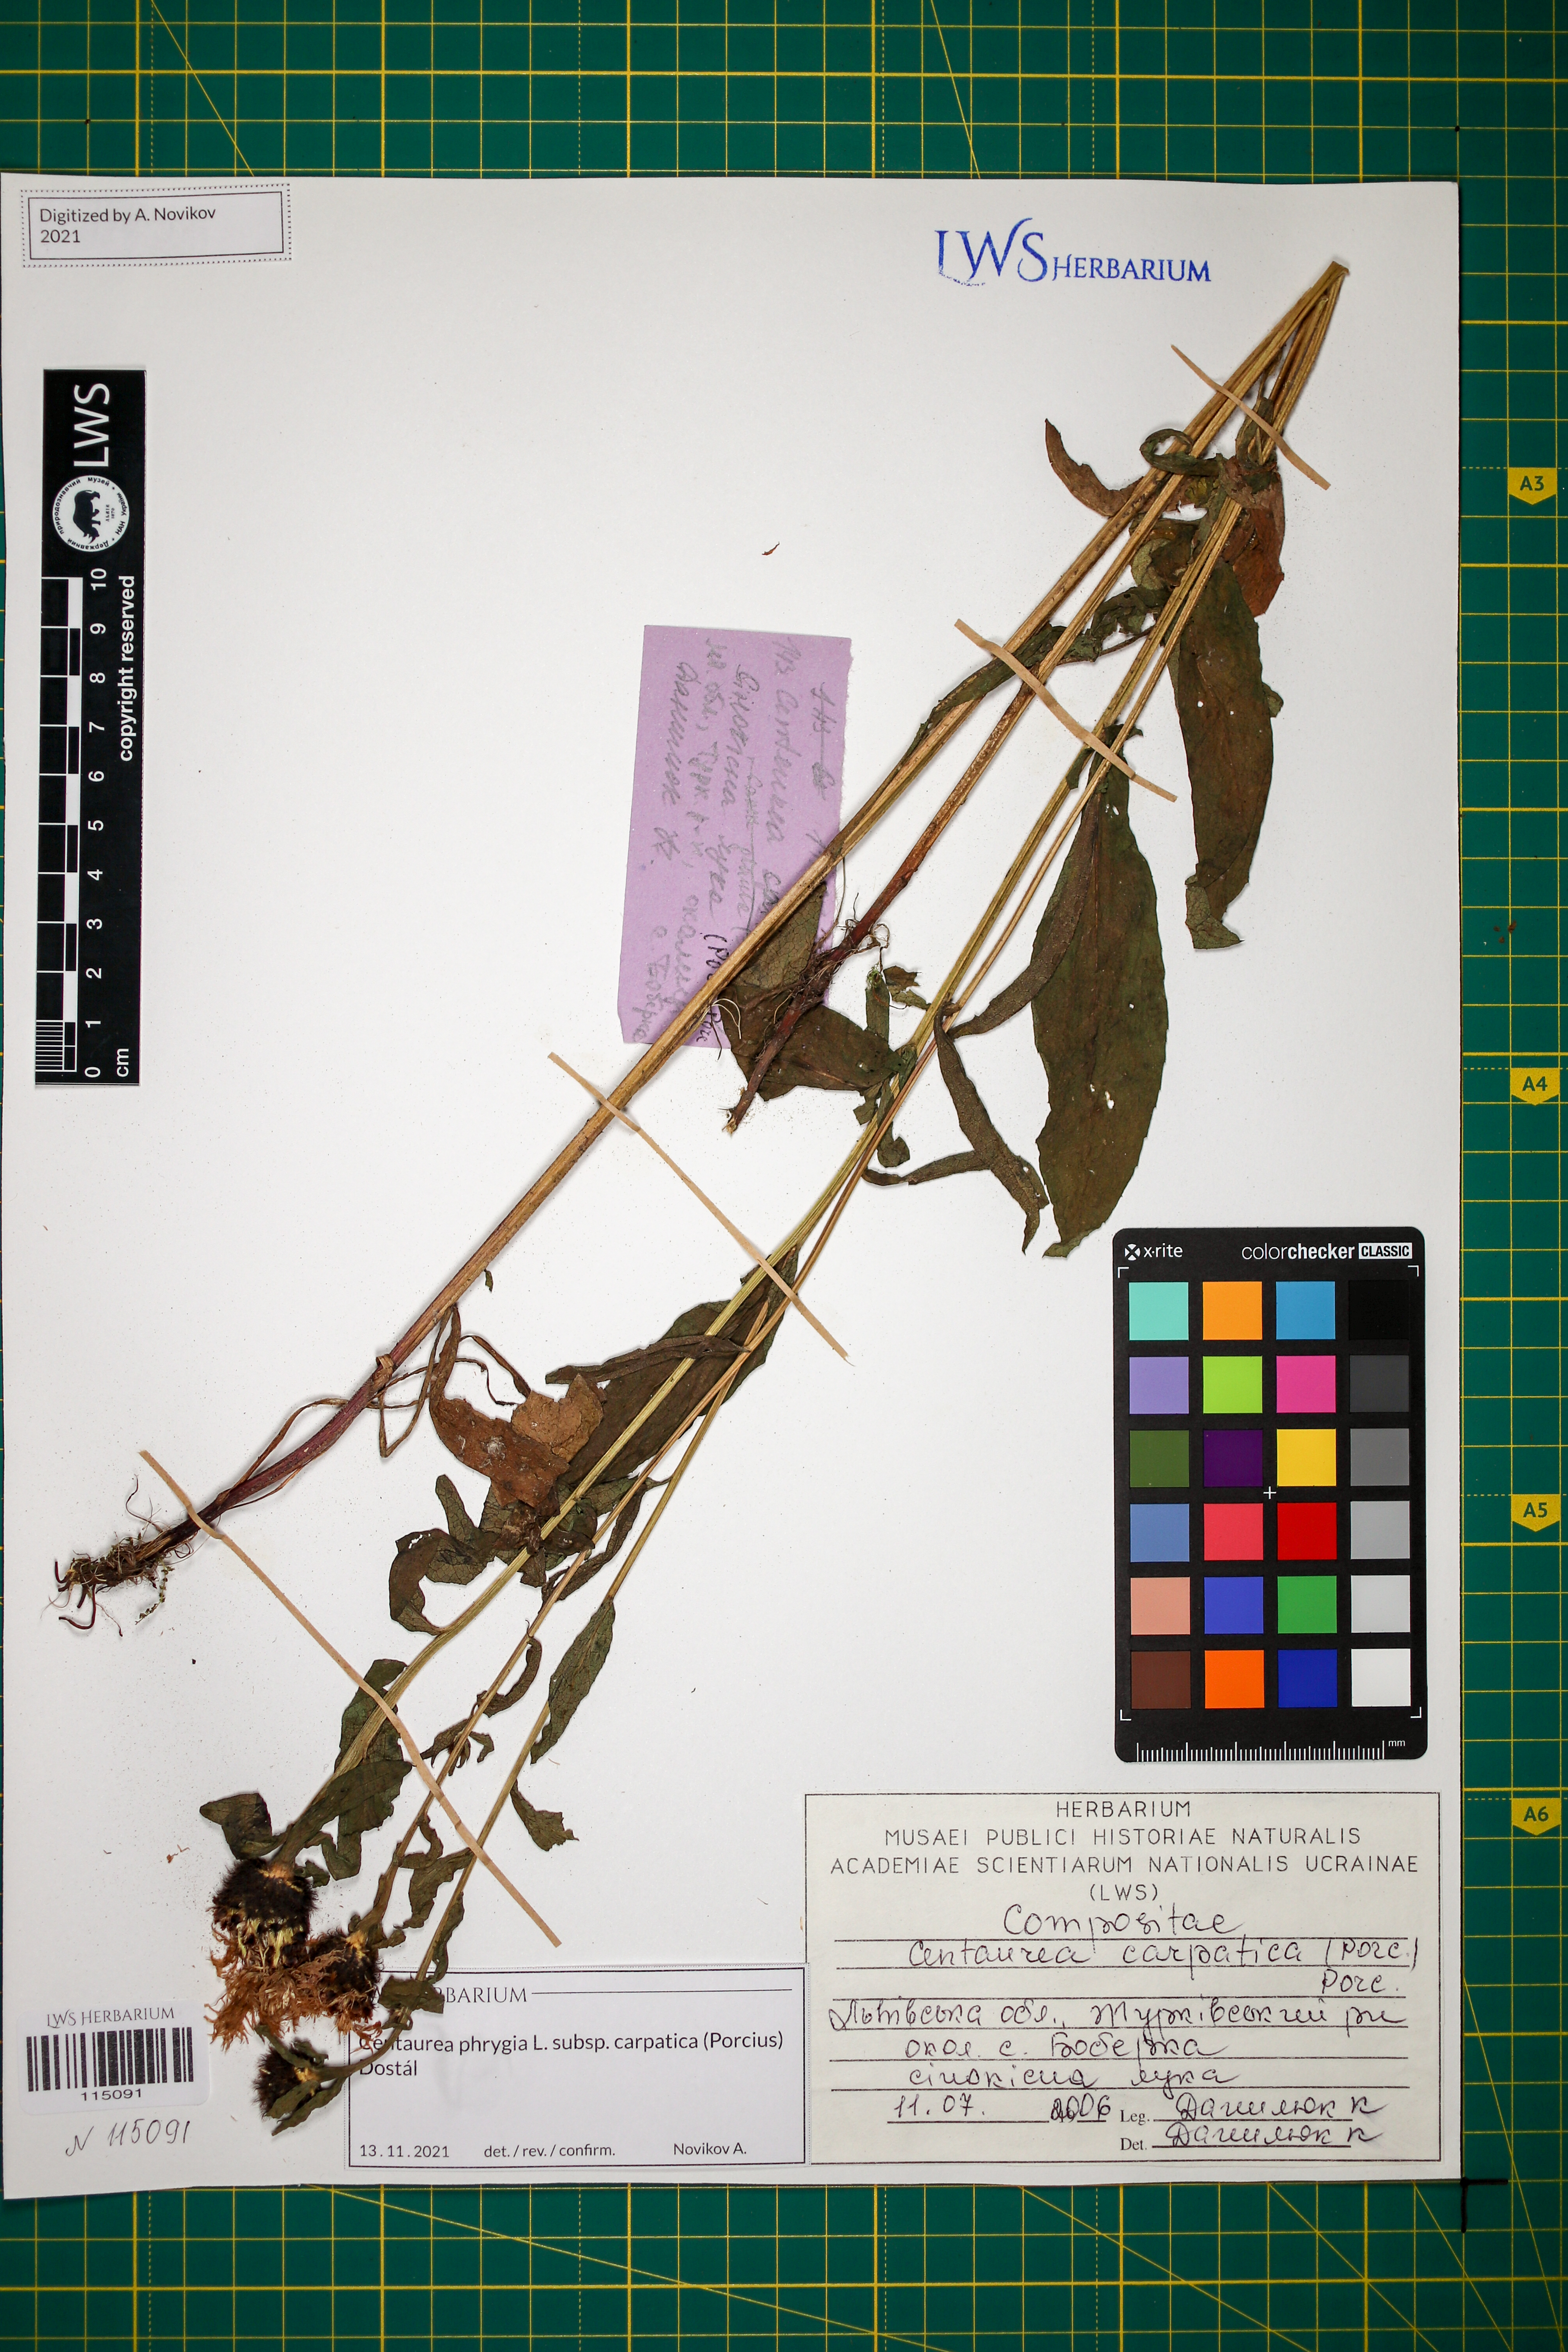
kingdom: Plantae
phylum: Tracheophyta
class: Magnoliopsida
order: Asterales
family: Asteraceae
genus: Centaurea
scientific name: Centaurea phrygia
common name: Wig knapweed
